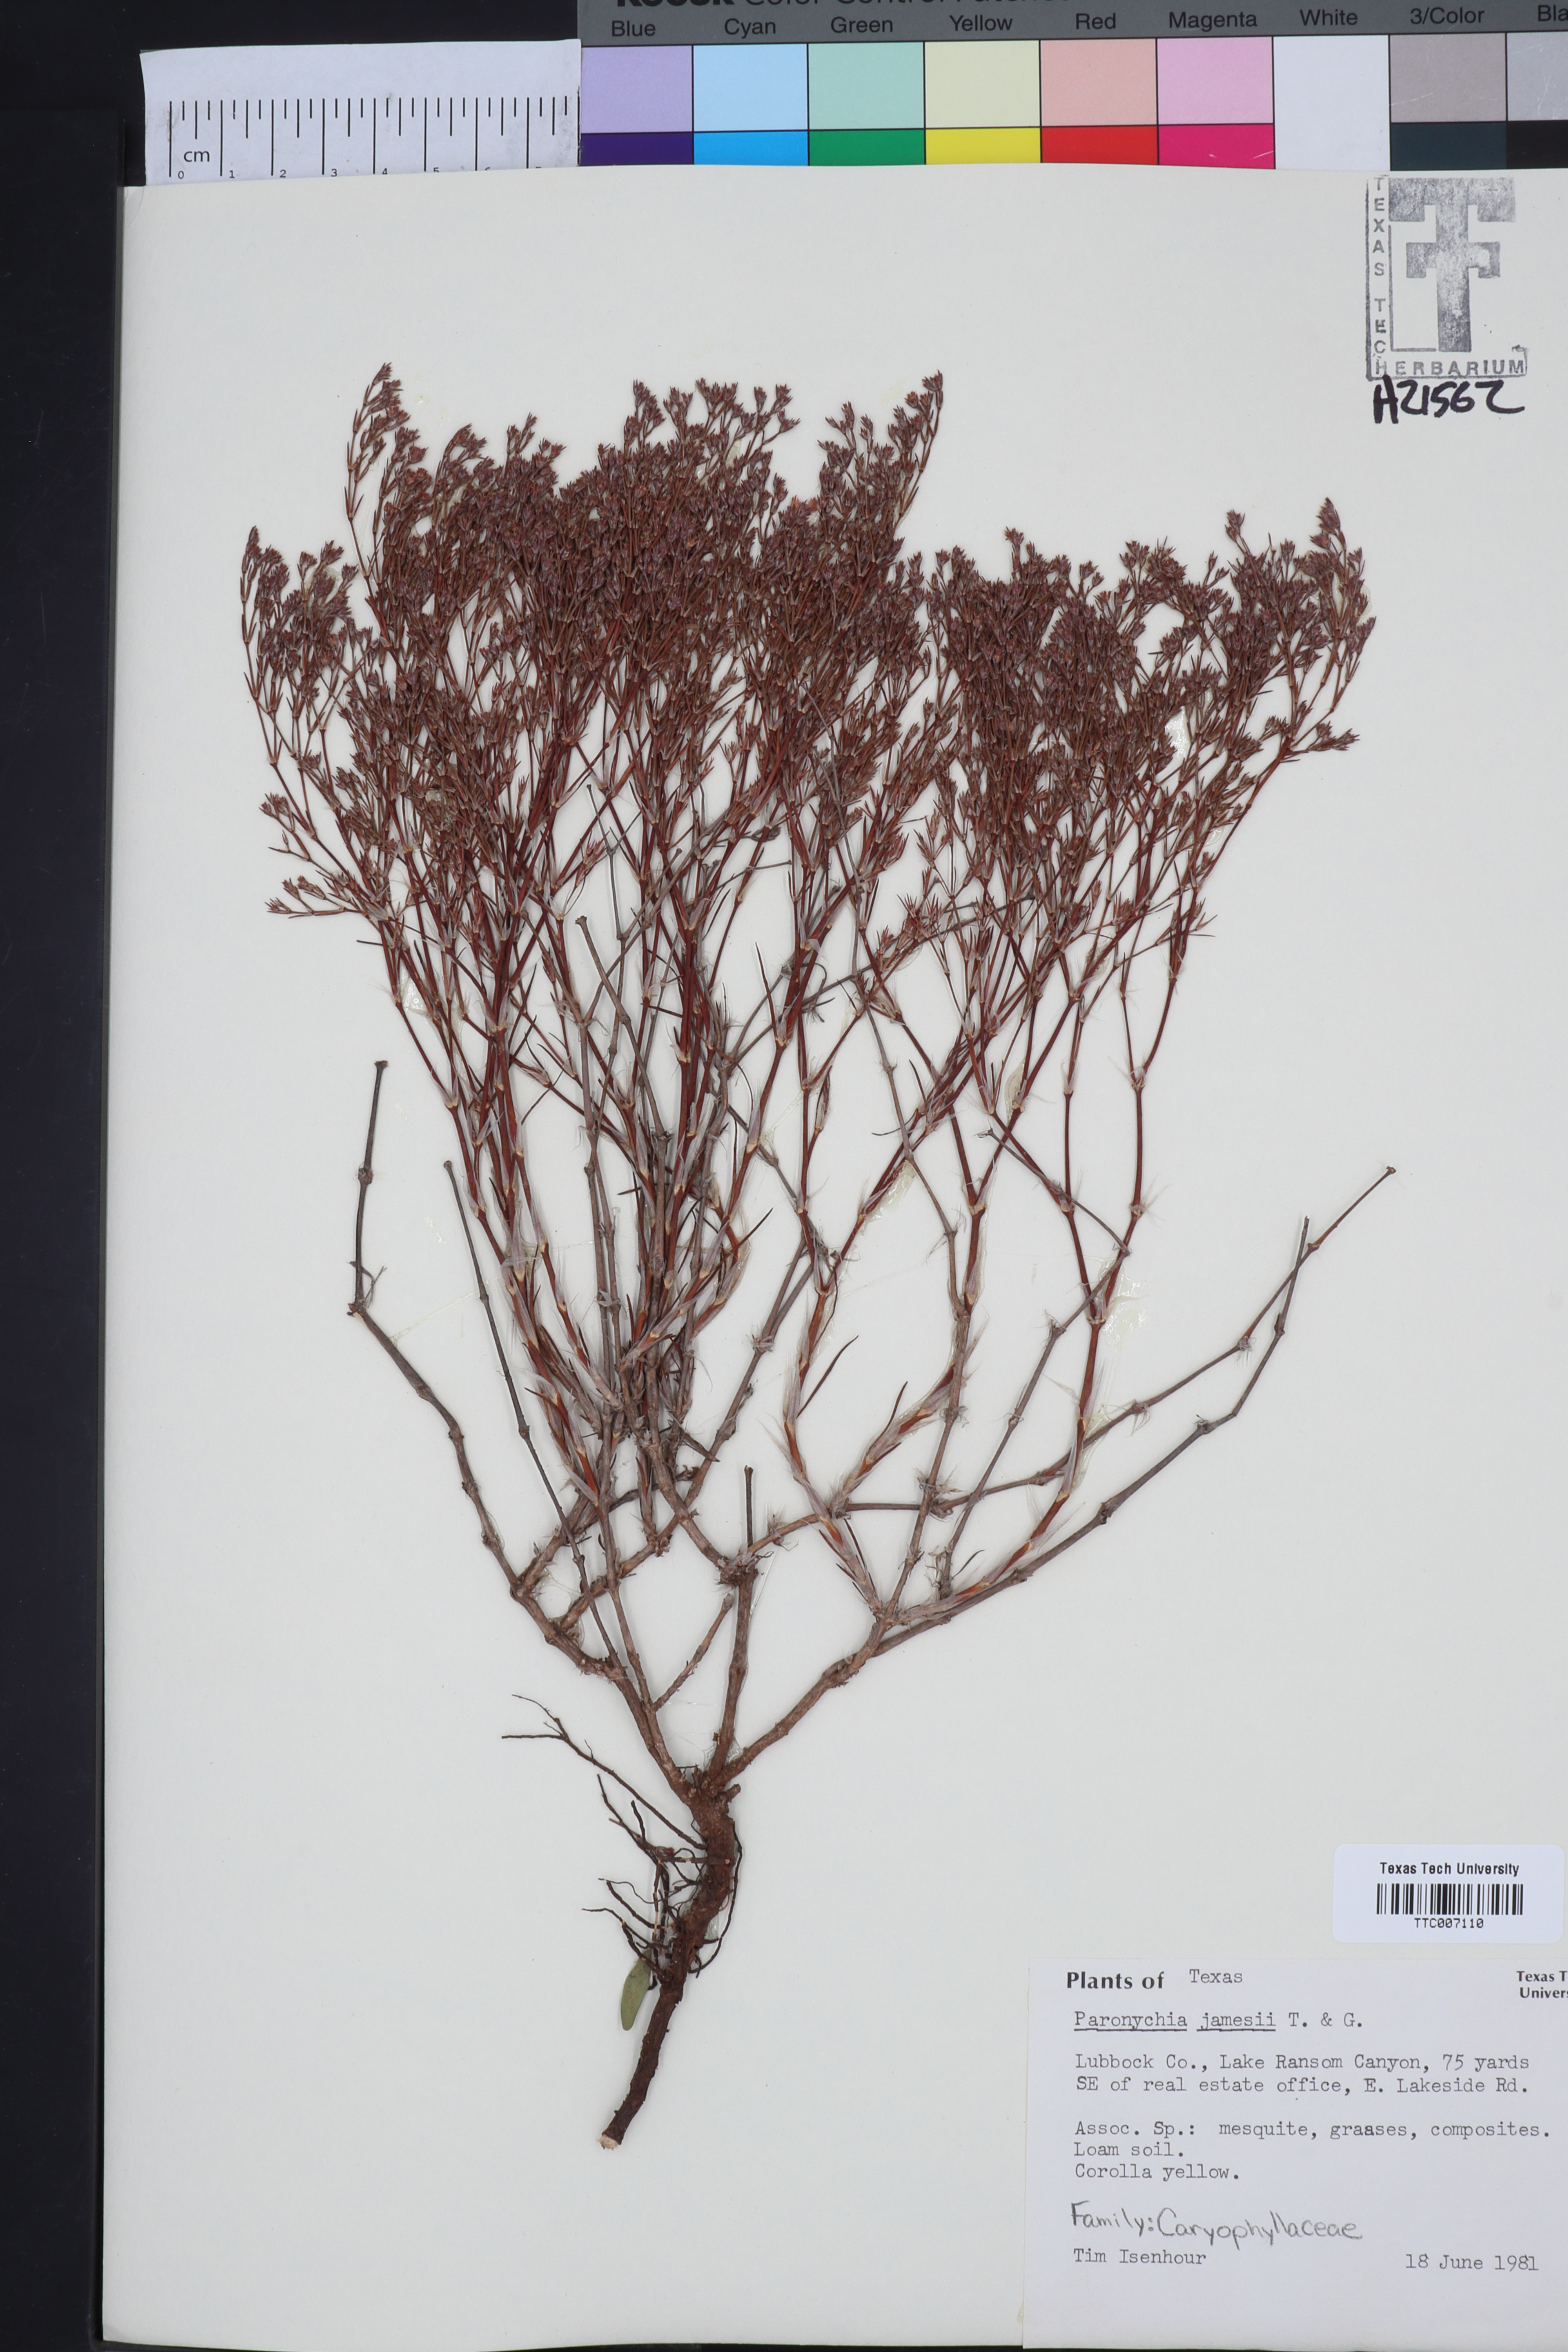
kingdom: Plantae
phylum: Tracheophyta
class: Magnoliopsida
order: Caryophyllales
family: Caryophyllaceae
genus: Paronychia
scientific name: Paronychia jamesii
